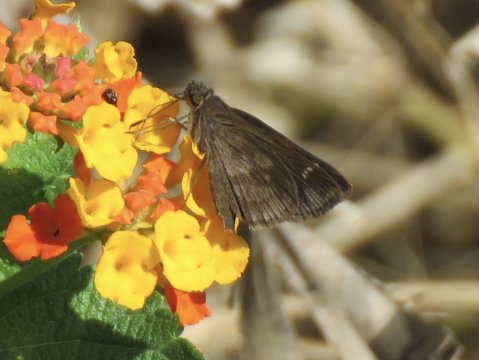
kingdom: Animalia
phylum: Arthropoda
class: Insecta
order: Lepidoptera
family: Hesperiidae
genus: Cymaenes
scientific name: Cymaenes odilia
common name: Fawn-spotted Skipper
